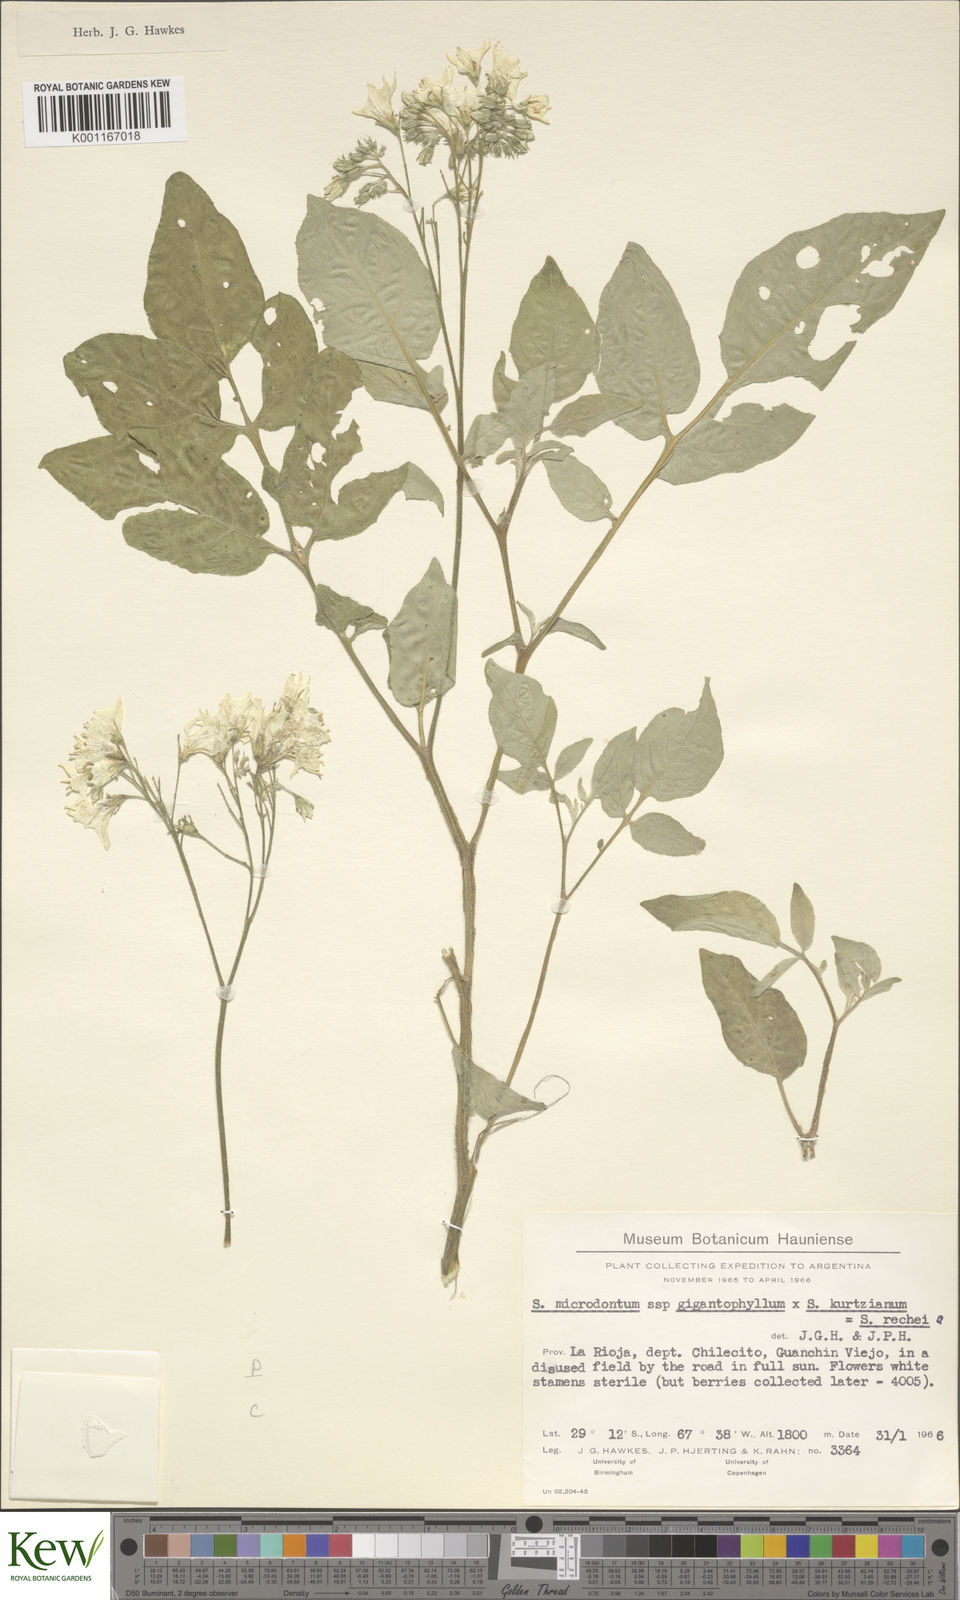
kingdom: Plantae
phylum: Tracheophyta
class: Magnoliopsida
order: Solanales
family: Solanaceae
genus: Solanum
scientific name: Solanum rechei
